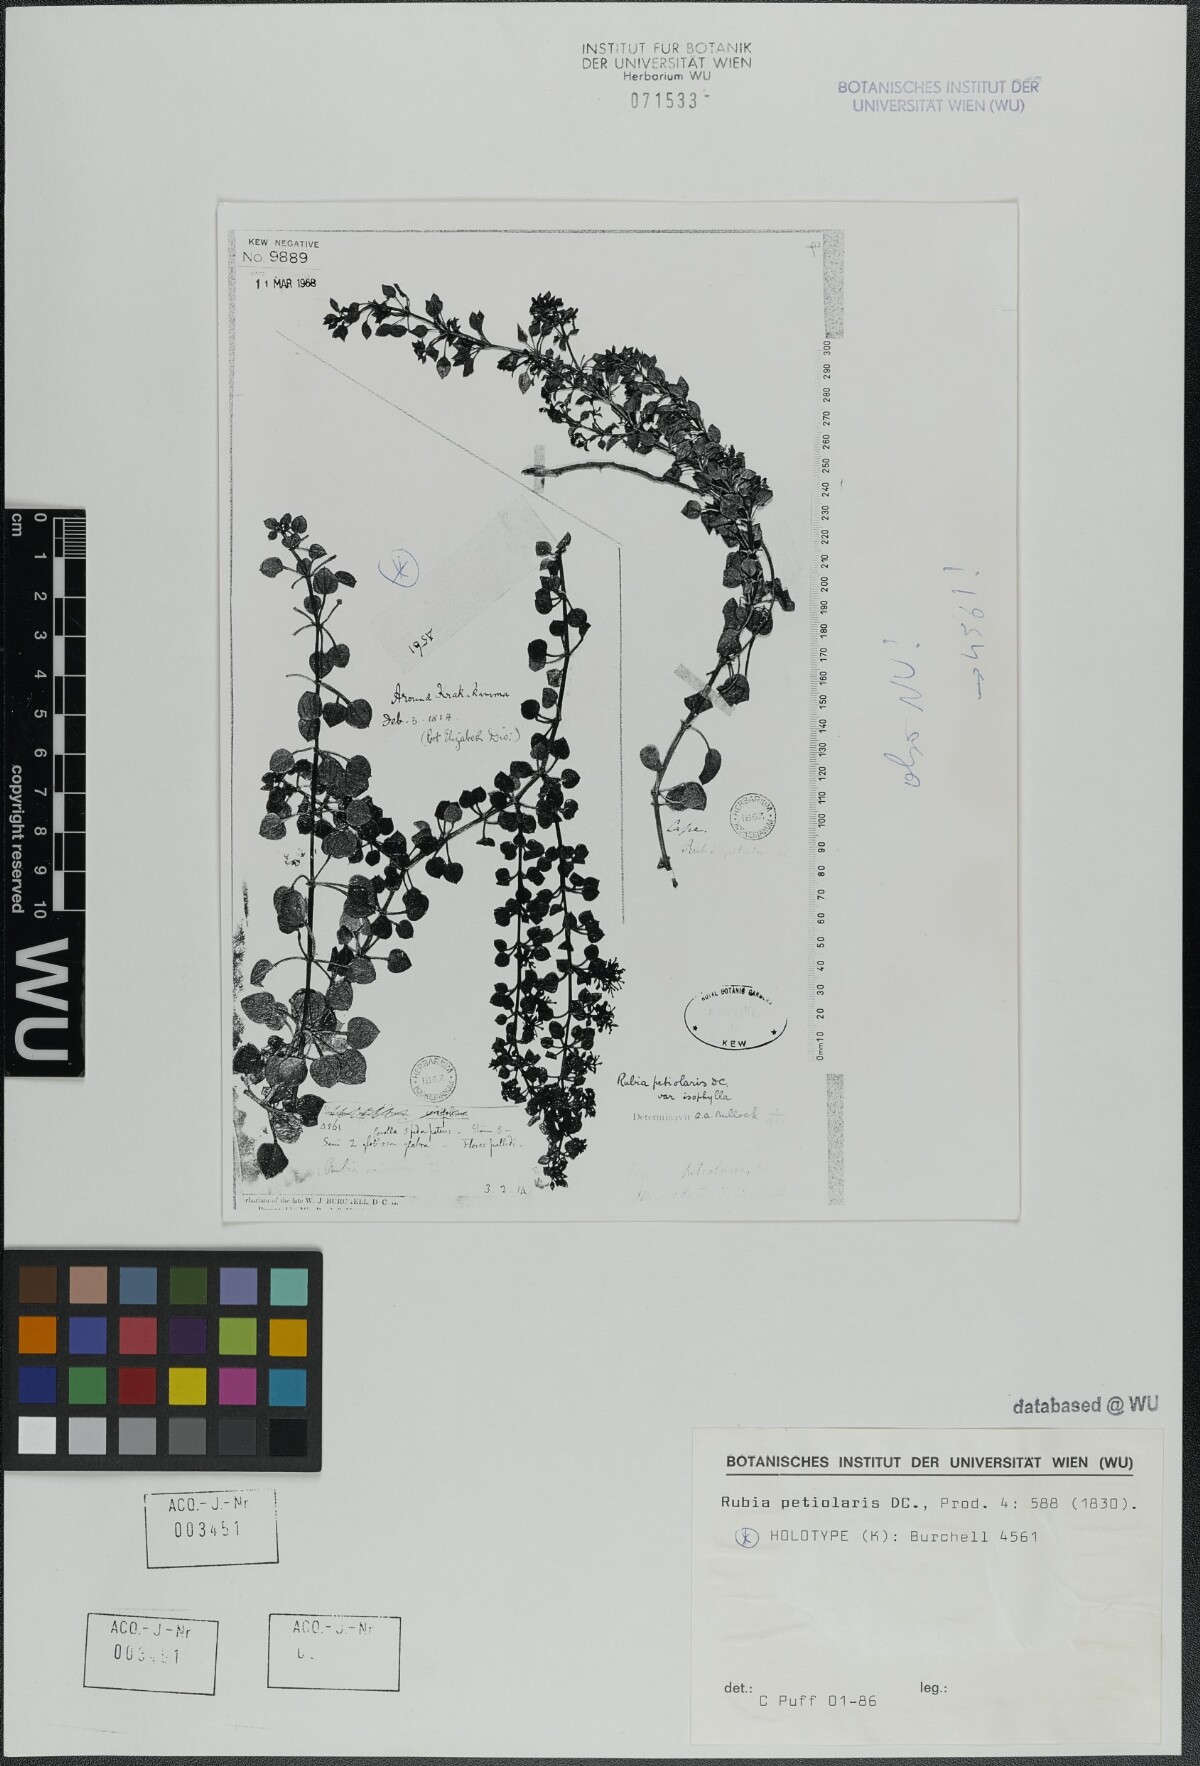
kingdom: Plantae
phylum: Tracheophyta
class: Magnoliopsida
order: Gentianales
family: Rubiaceae
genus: Rubia
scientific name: Rubia petiolaris
